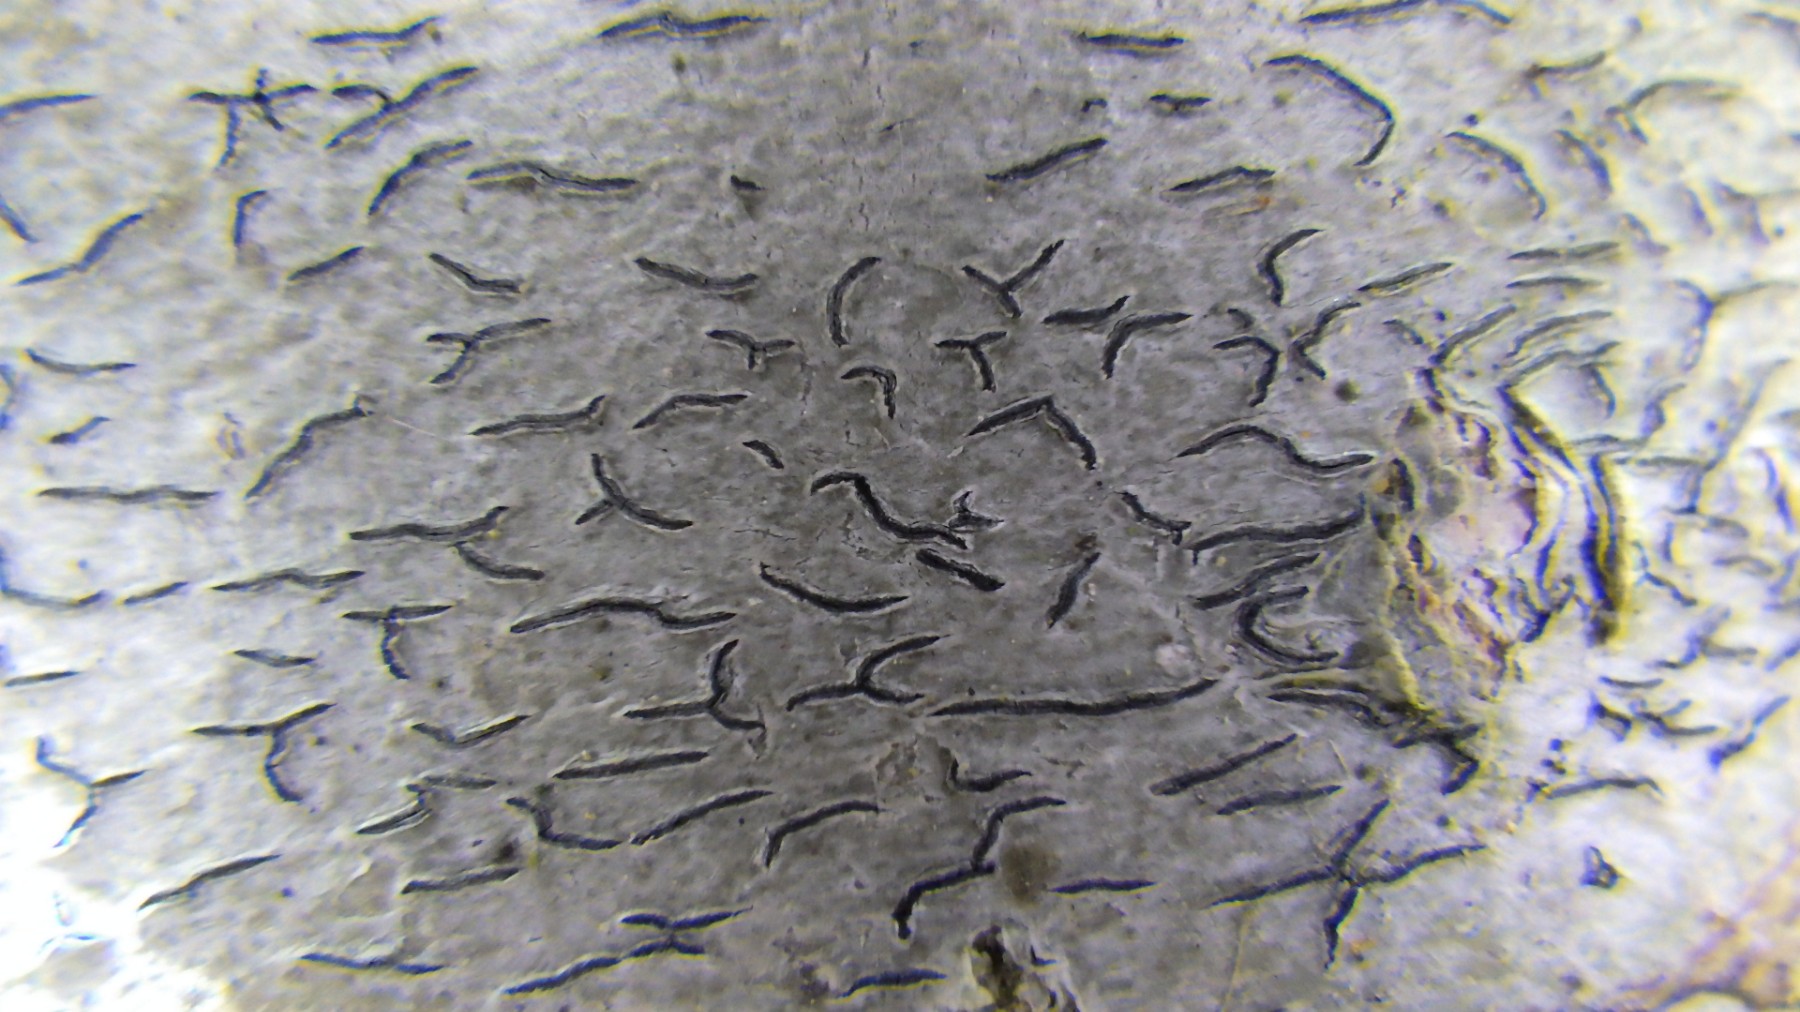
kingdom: Fungi
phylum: Ascomycota
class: Lecanoromycetes
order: Ostropales
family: Graphidaceae
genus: Graphis
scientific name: Graphis scripta
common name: almindelig skriftlav
